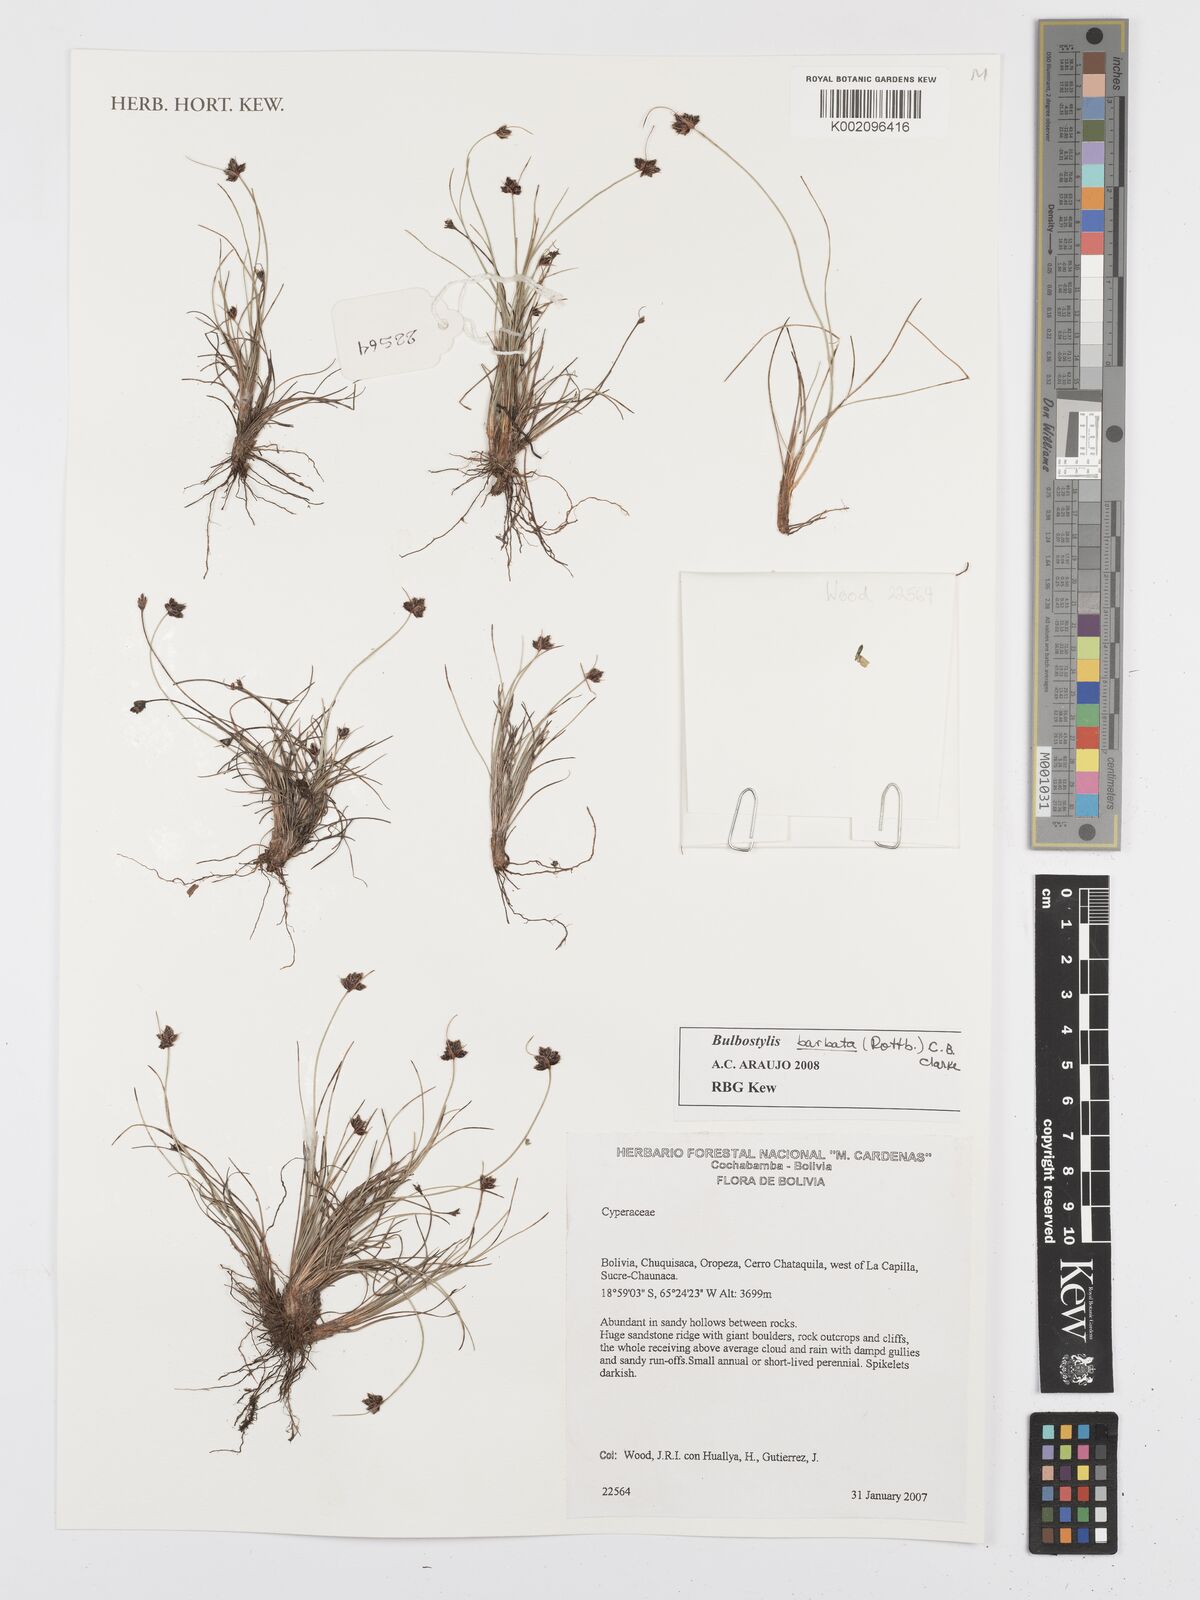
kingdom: Plantae
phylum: Tracheophyta
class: Liliopsida
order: Poales
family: Cyperaceae
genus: Bulbostylis
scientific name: Bulbostylis barbata
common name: Watergrass
